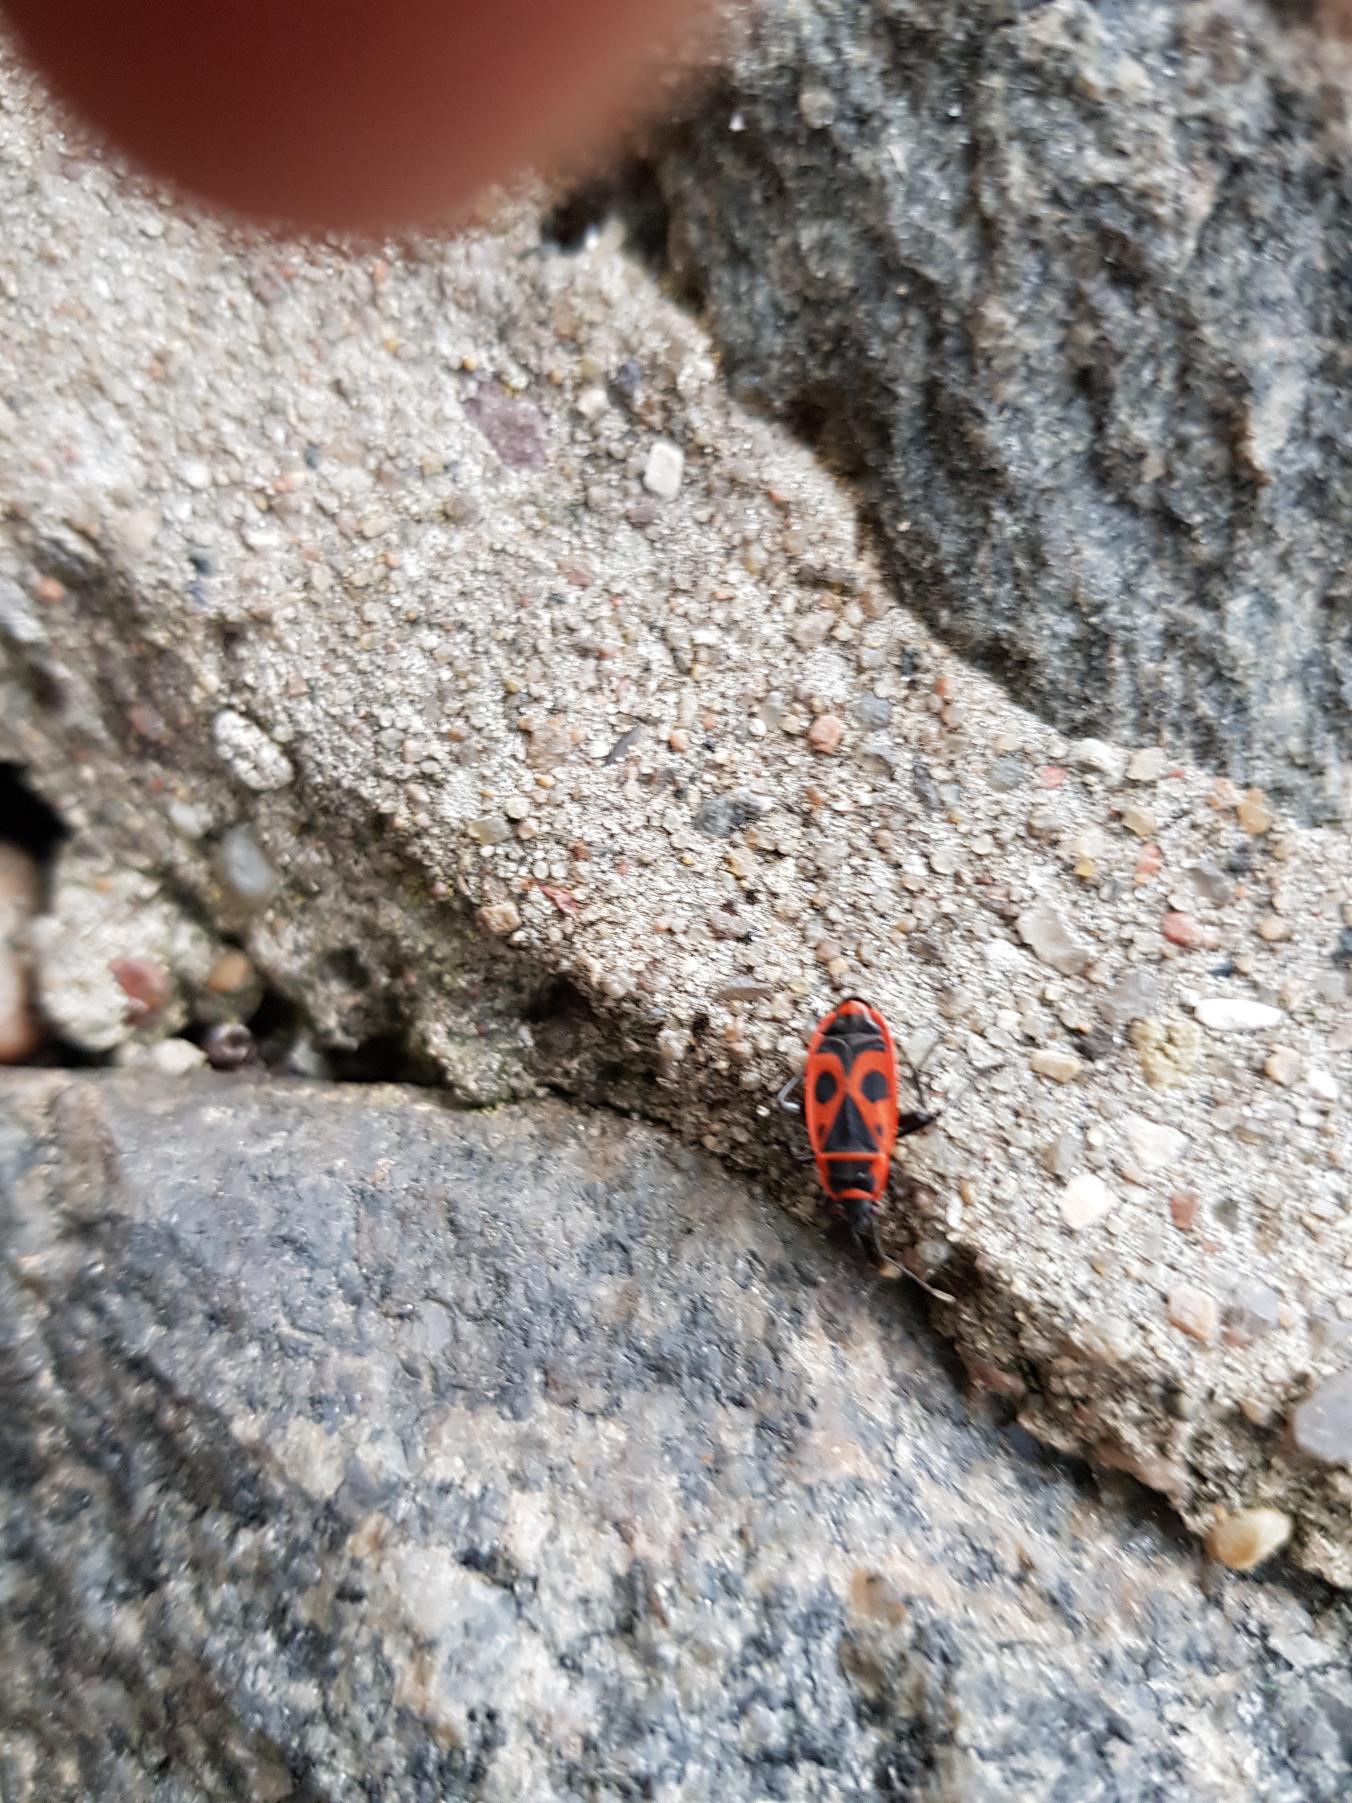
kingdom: Animalia
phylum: Arthropoda
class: Insecta
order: Hemiptera
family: Pyrrhocoridae
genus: Pyrrhocoris
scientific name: Pyrrhocoris apterus
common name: Ildtæge
